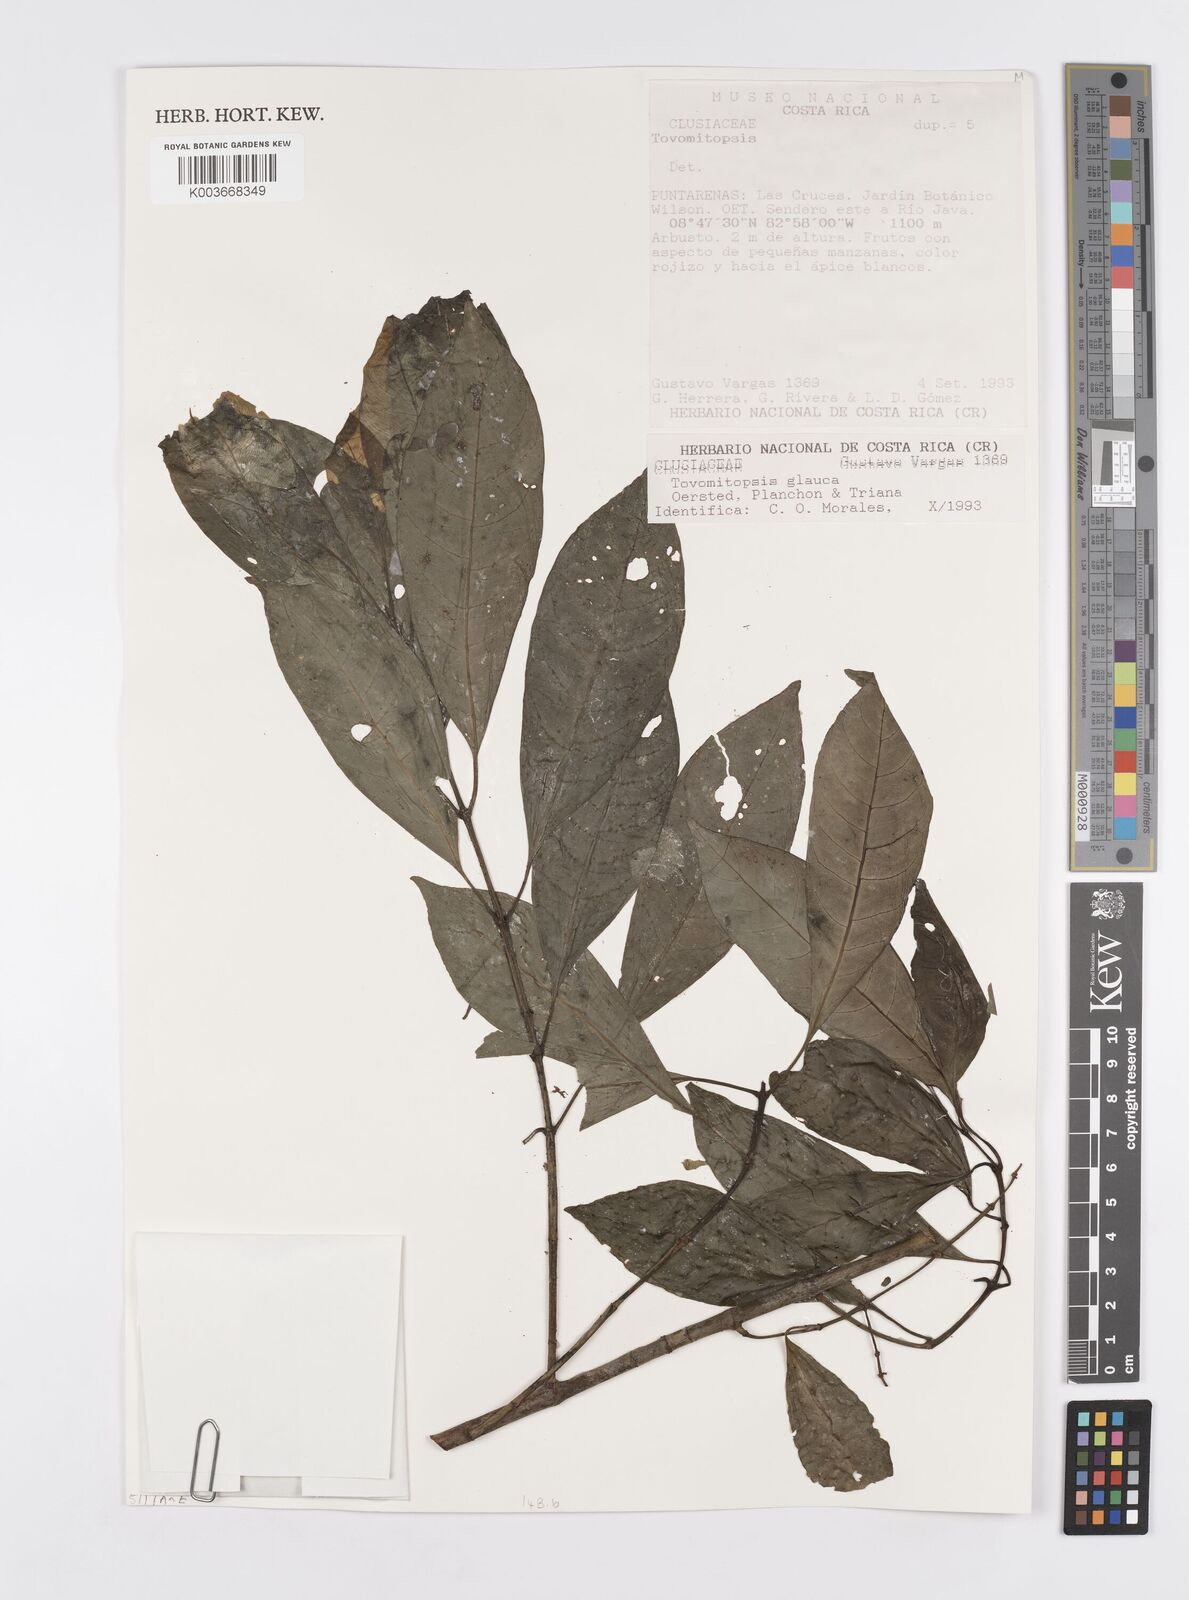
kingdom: Plantae
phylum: Tracheophyta
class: Magnoliopsida
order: Malpighiales
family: Clusiaceae
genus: Chrysochlamys
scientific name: Chrysochlamys glauca
